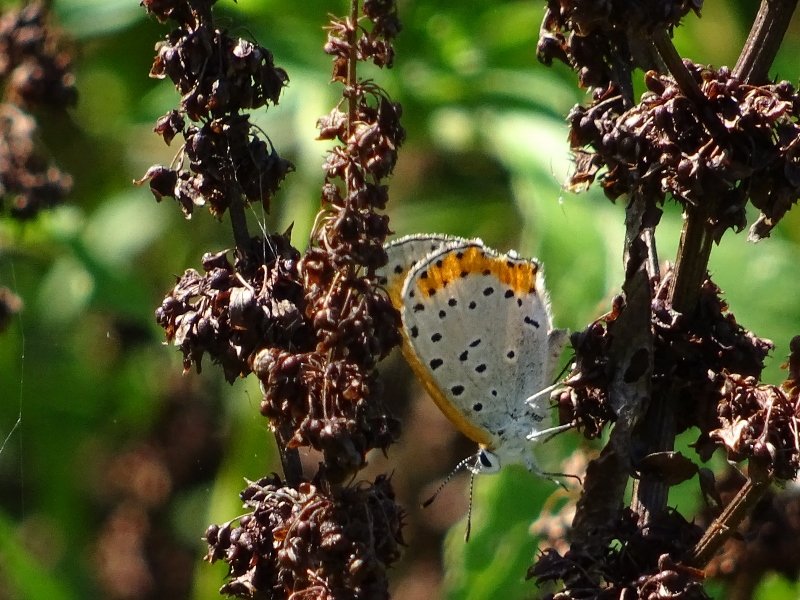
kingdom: Animalia
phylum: Arthropoda
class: Insecta
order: Lepidoptera
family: Sesiidae
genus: Sesia
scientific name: Sesia Lycaena hyllus
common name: Bronze Copper
